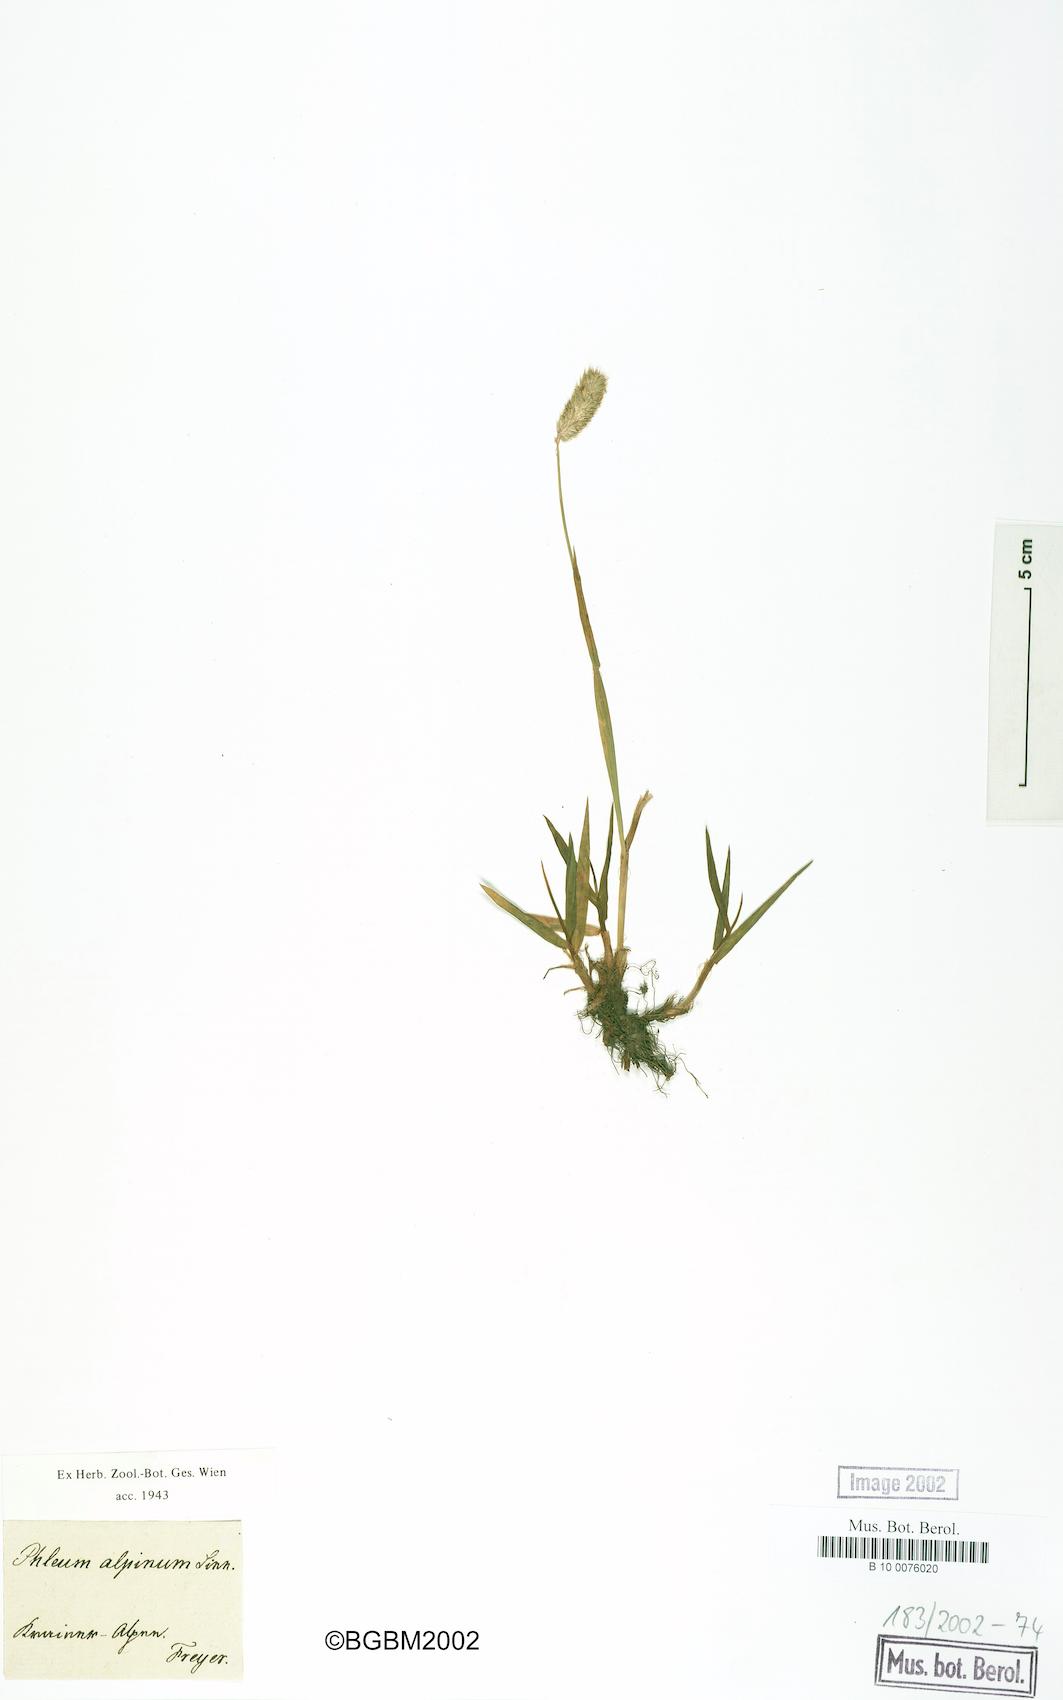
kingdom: Plantae
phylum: Tracheophyta
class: Liliopsida
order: Poales
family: Poaceae
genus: Phleum
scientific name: Phleum alpinum
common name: Alpine cat's-tail
